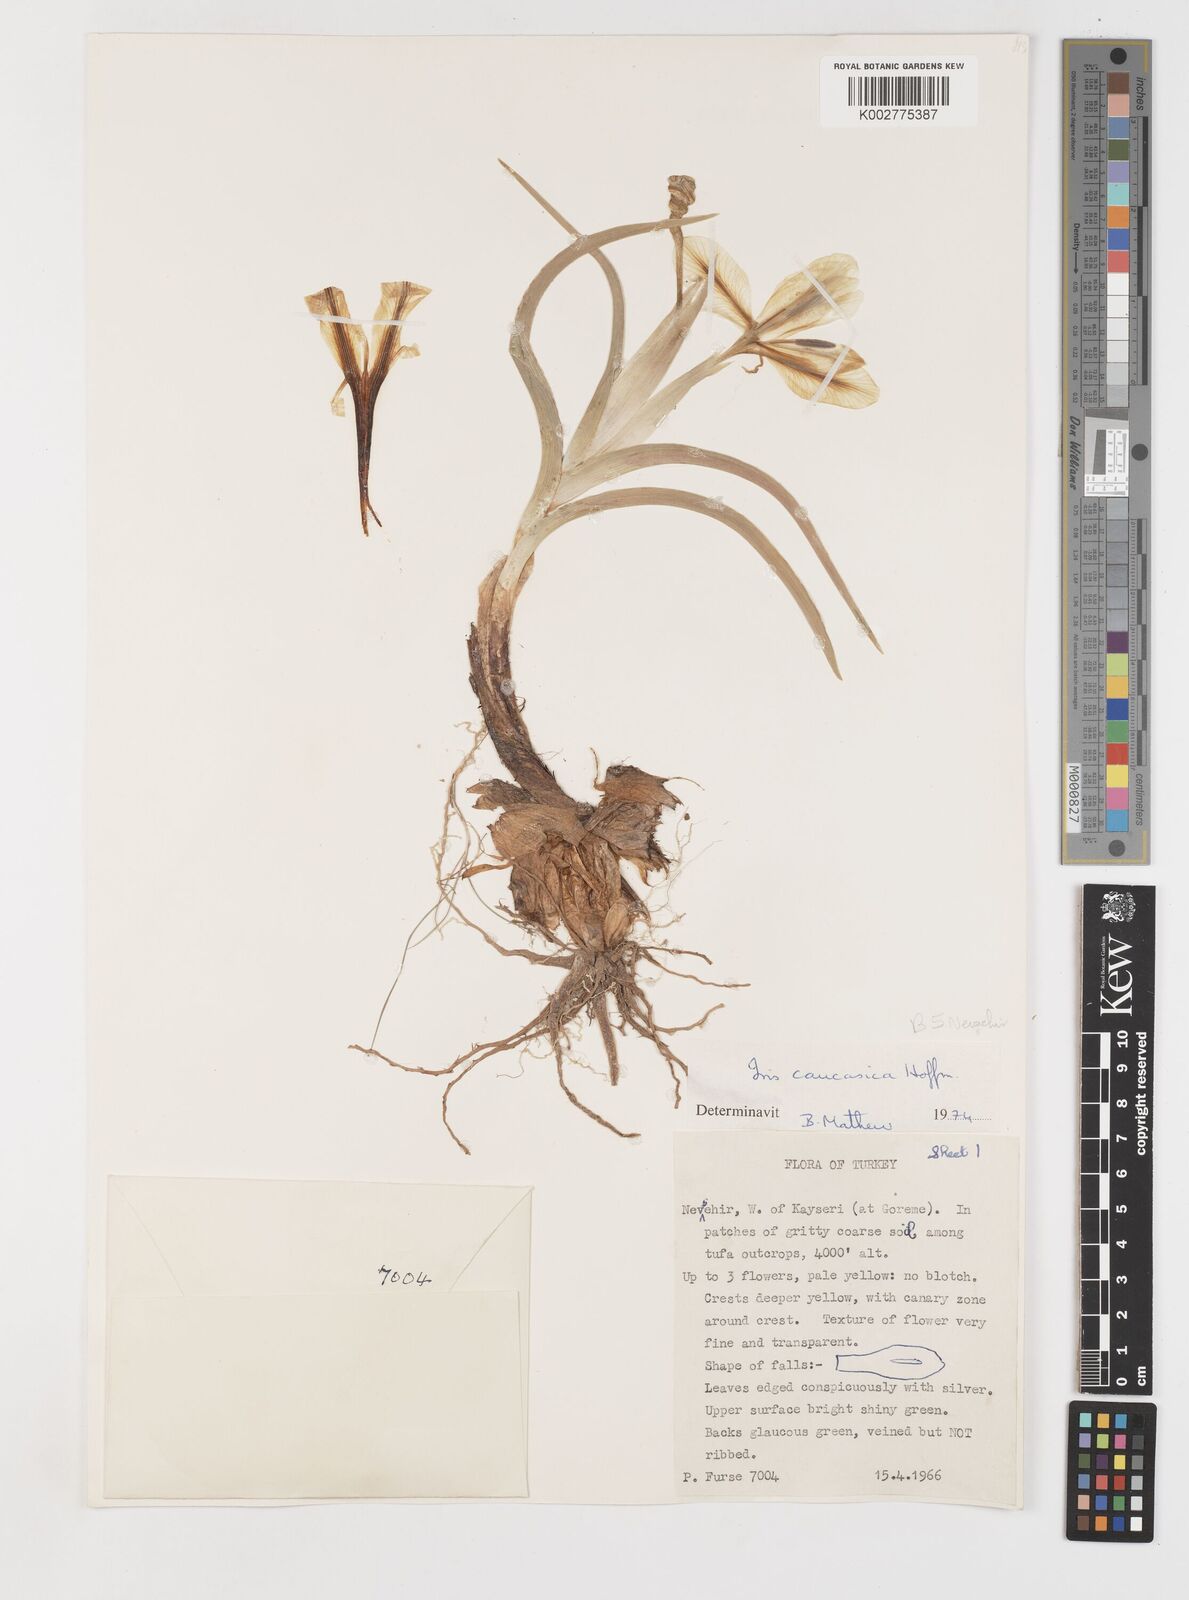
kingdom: Plantae
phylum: Tracheophyta
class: Liliopsida
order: Asparagales
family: Iridaceae
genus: Iris
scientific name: Iris caucasica
